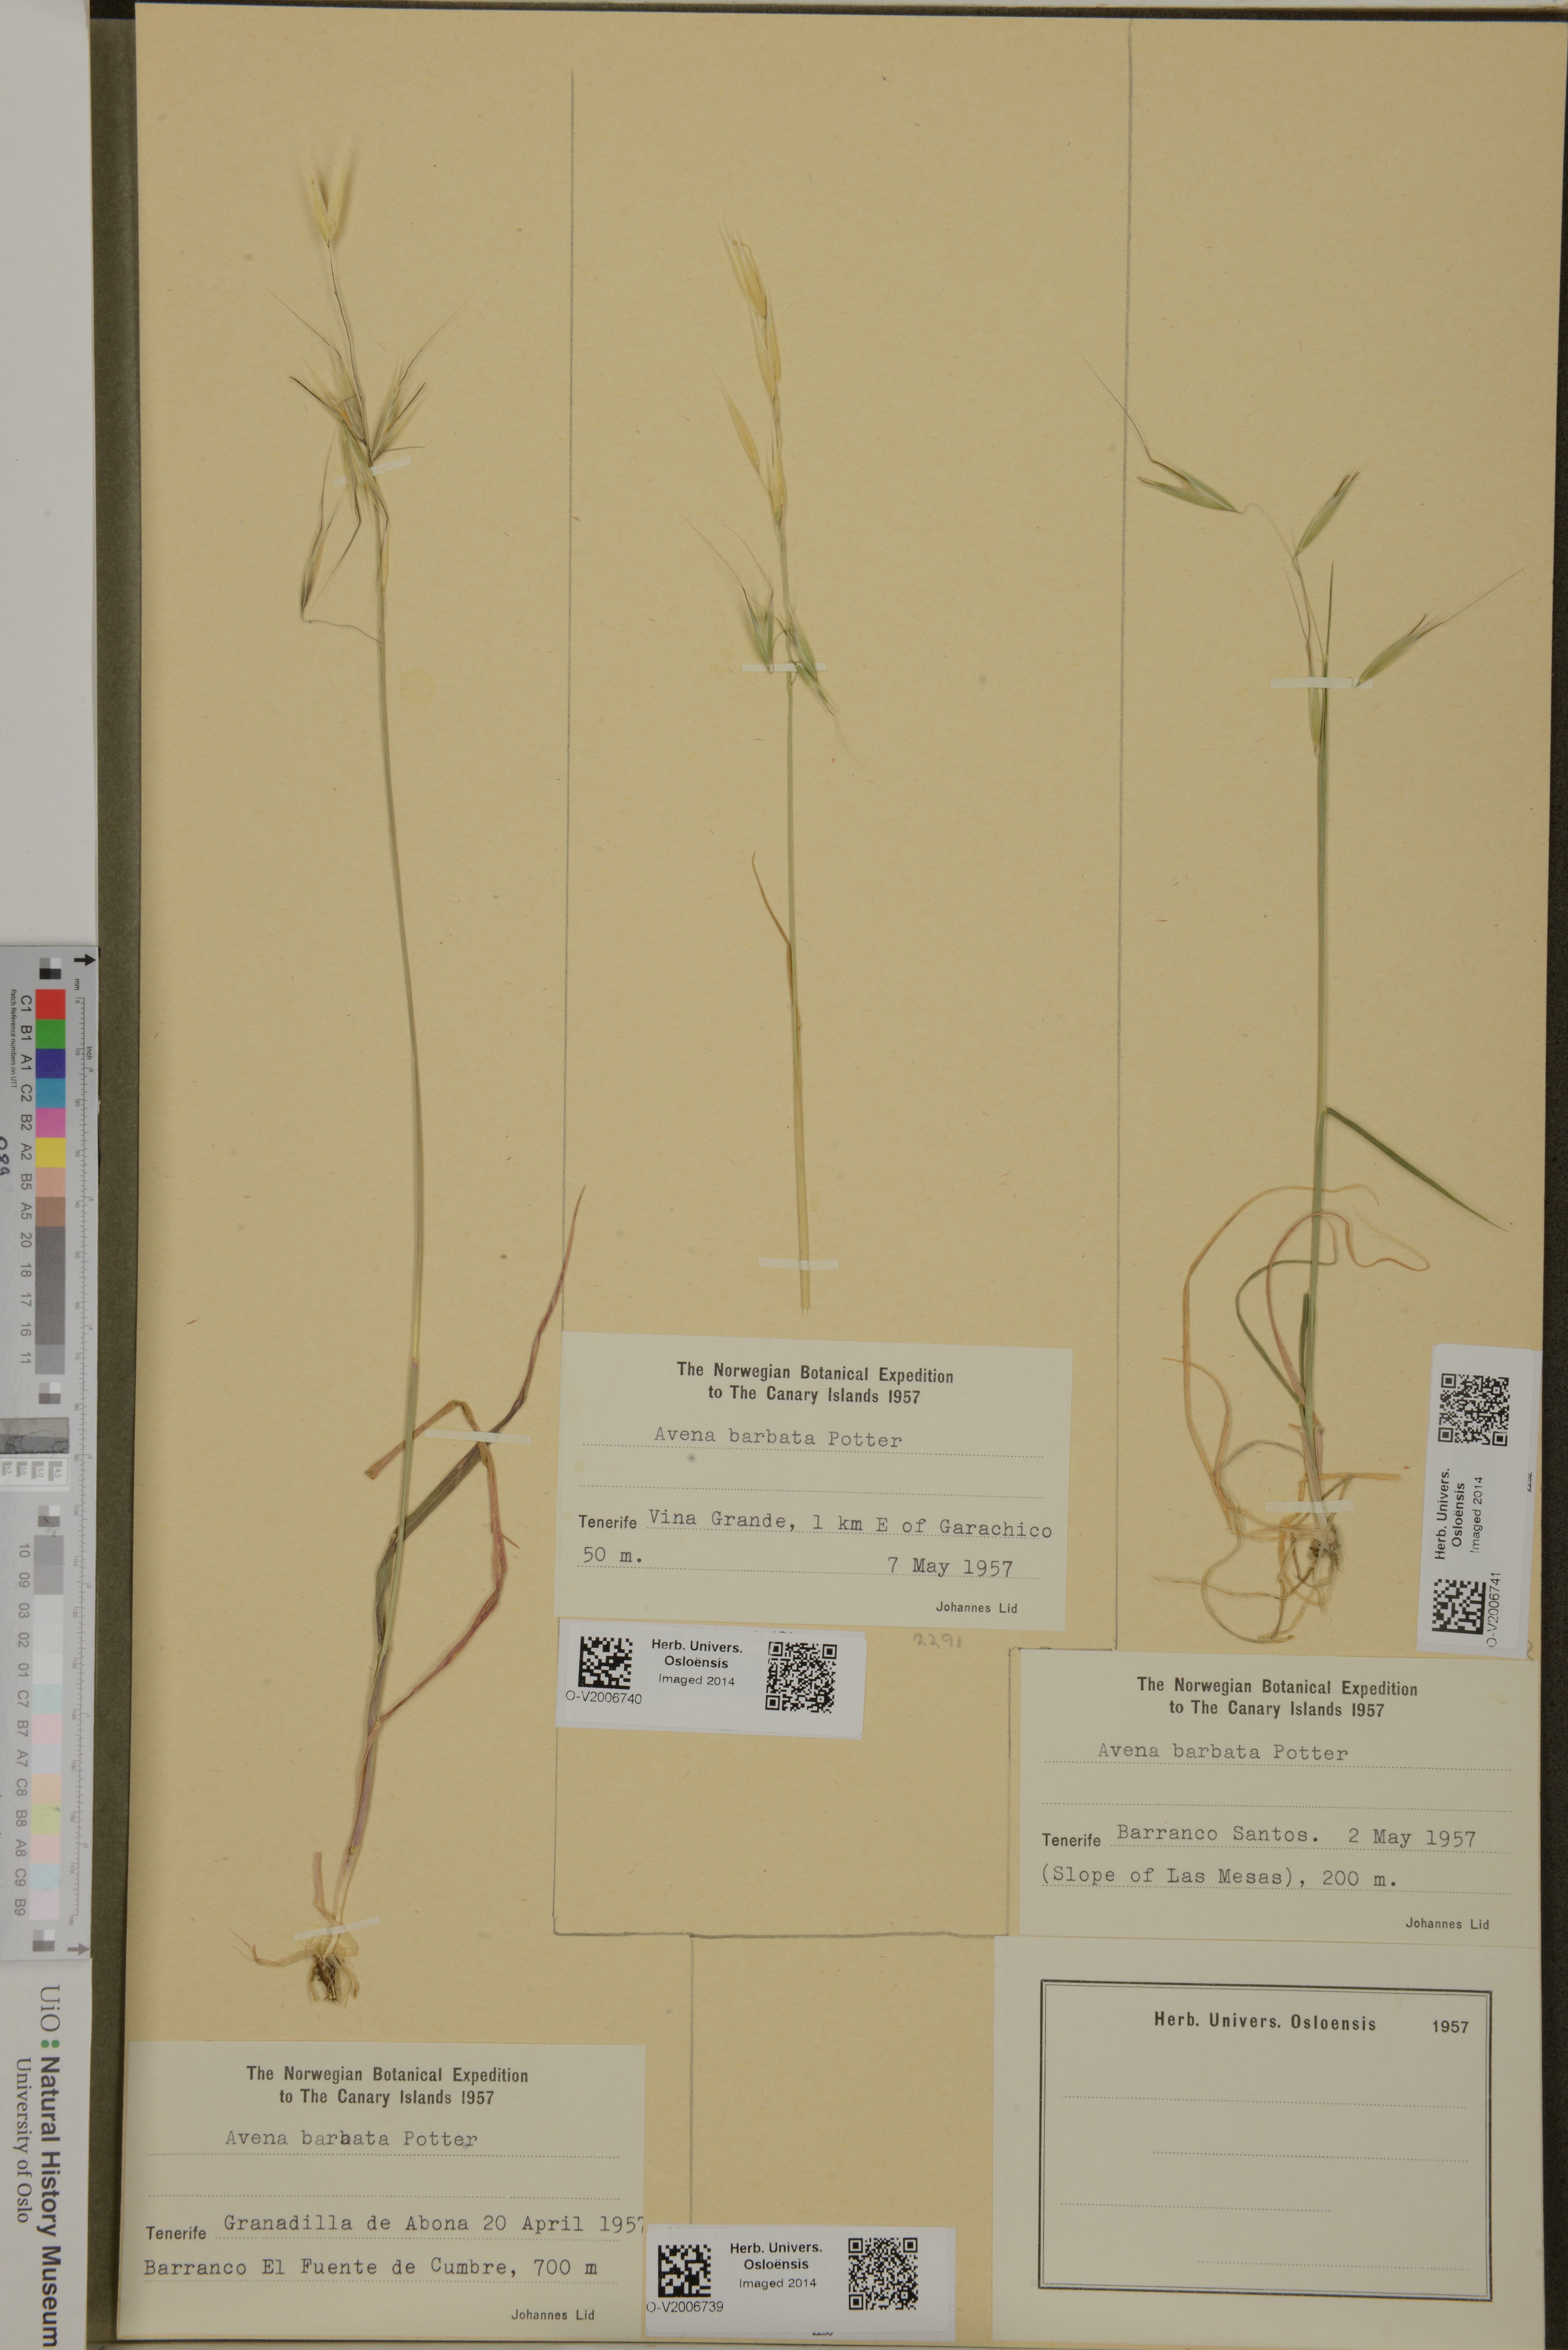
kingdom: Plantae
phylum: Tracheophyta
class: Liliopsida
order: Poales
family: Poaceae
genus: Avena
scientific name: Avena barbata
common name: Slender oat
